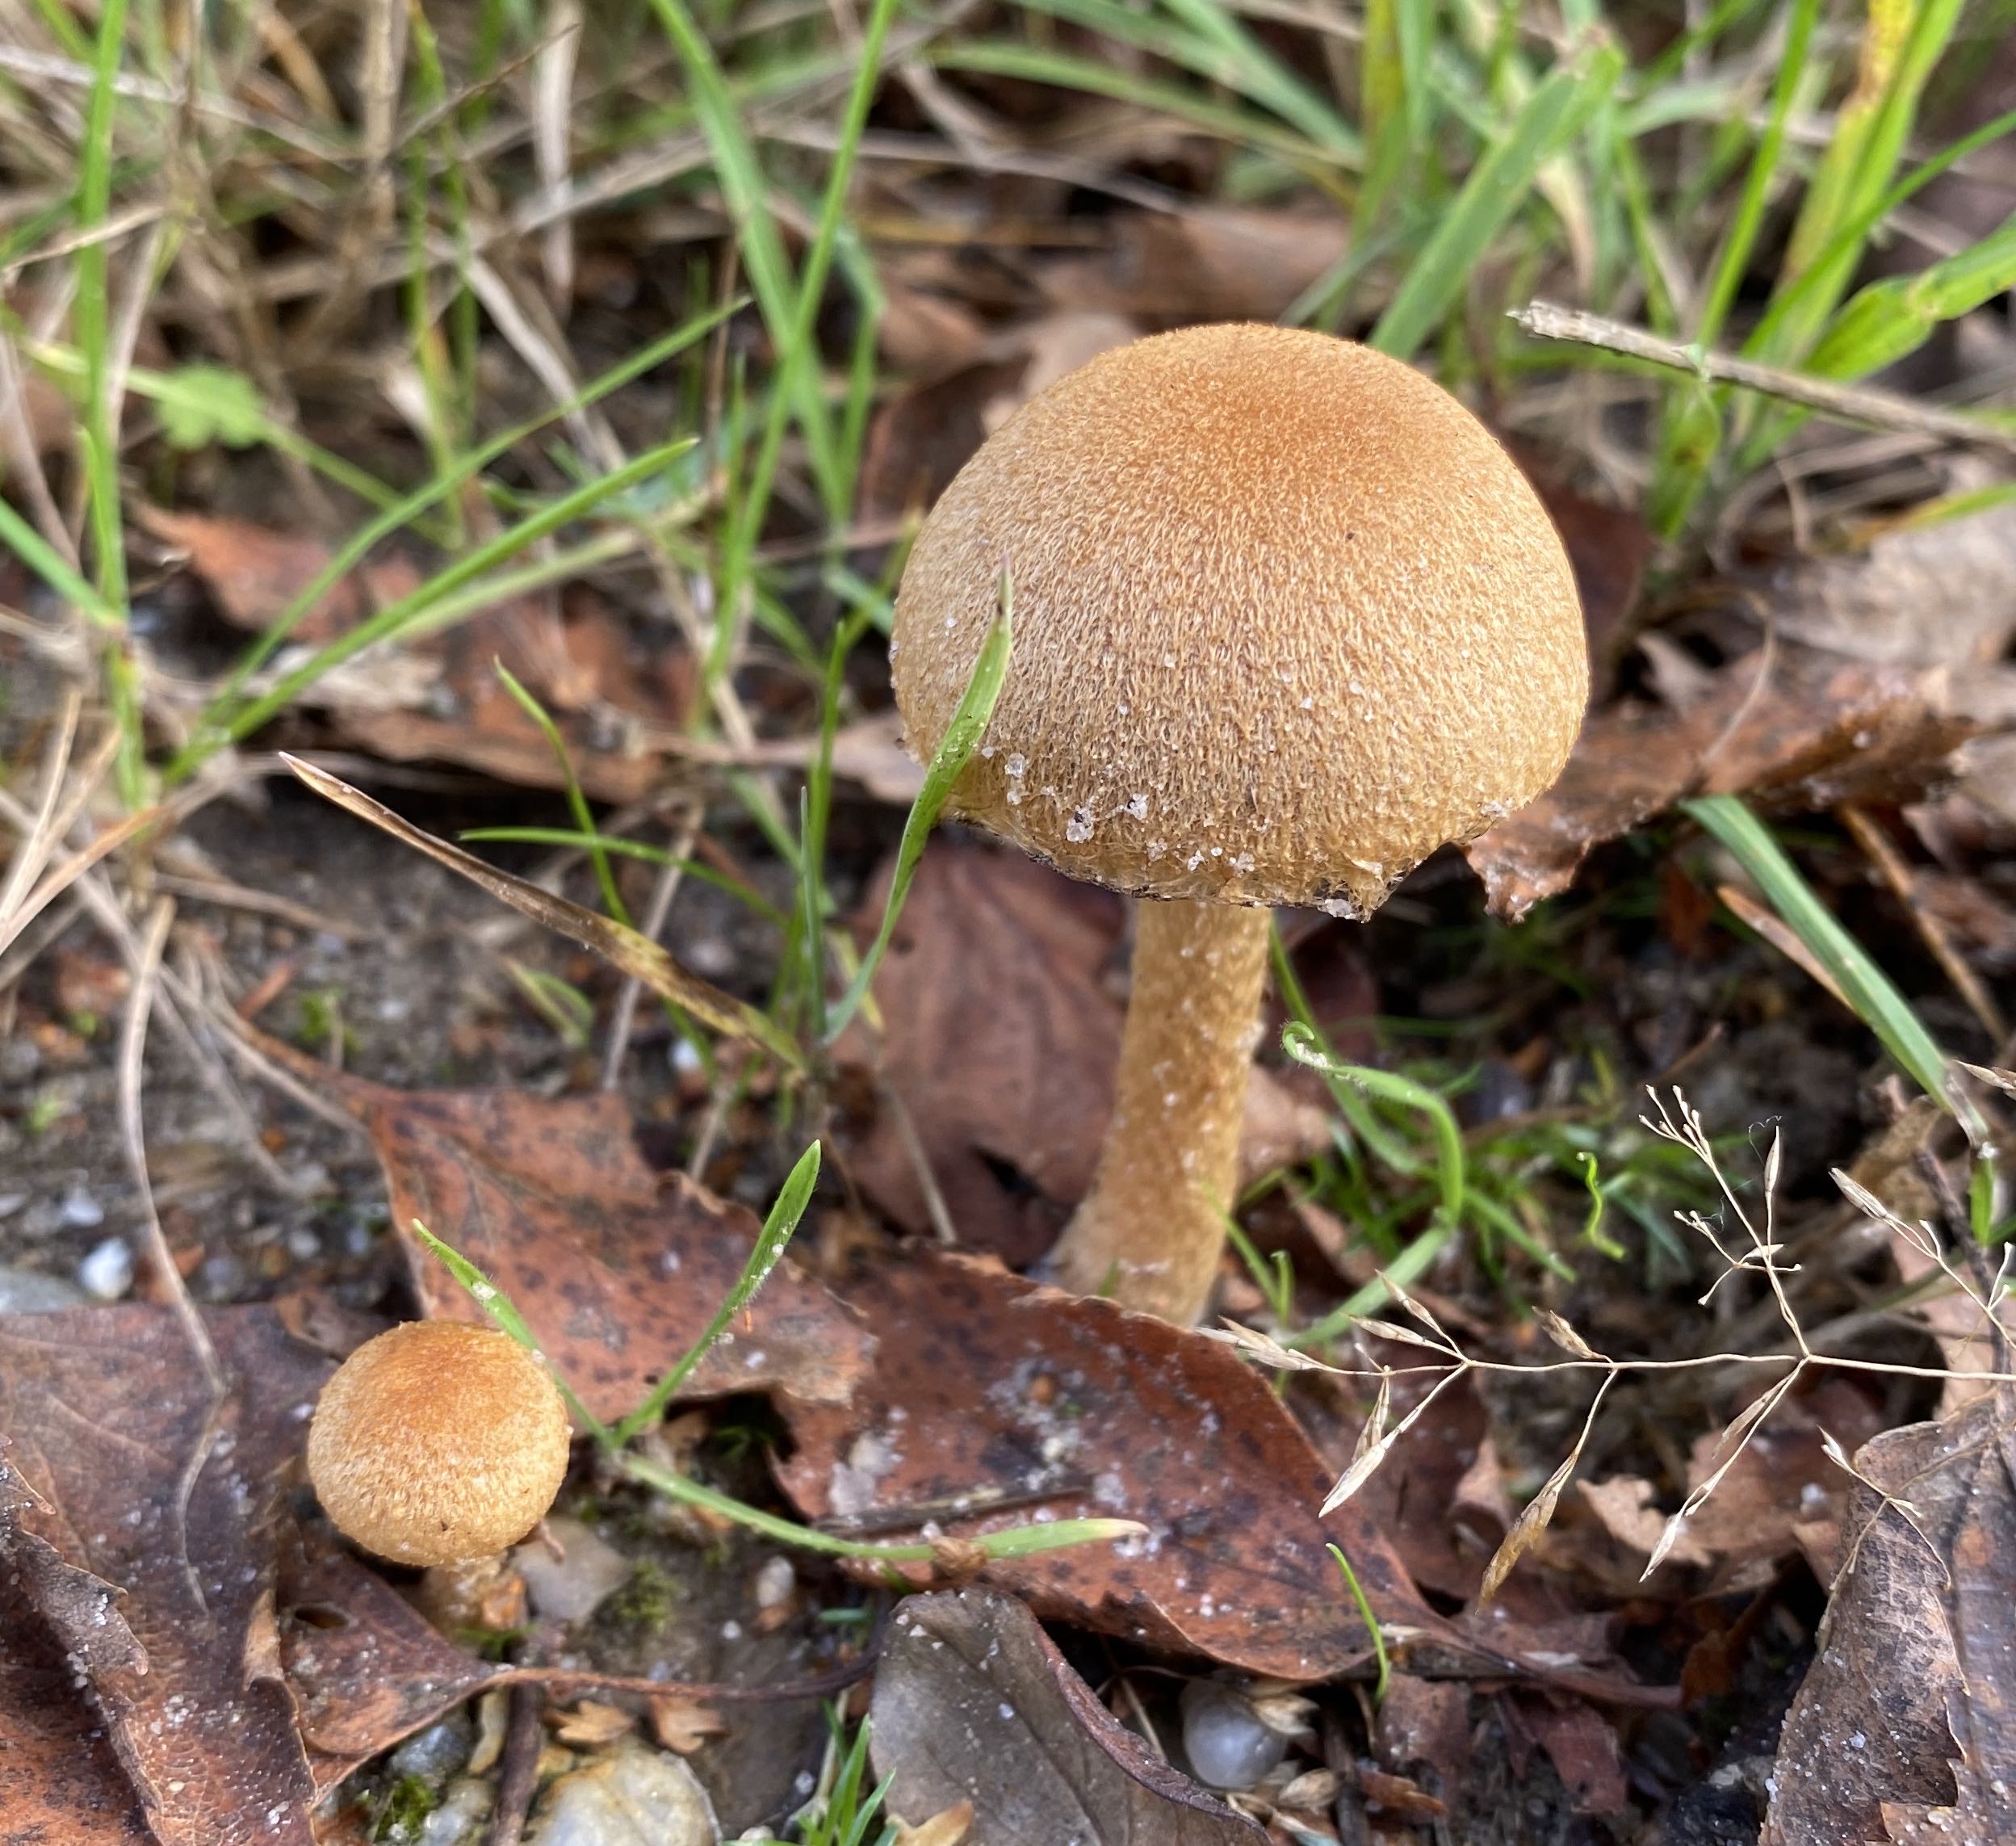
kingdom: Fungi
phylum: Basidiomycota
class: Agaricomycetes
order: Agaricales
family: Psathyrellaceae
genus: Lacrymaria
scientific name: Lacrymaria lacrymabunda
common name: grædende mørkhat
